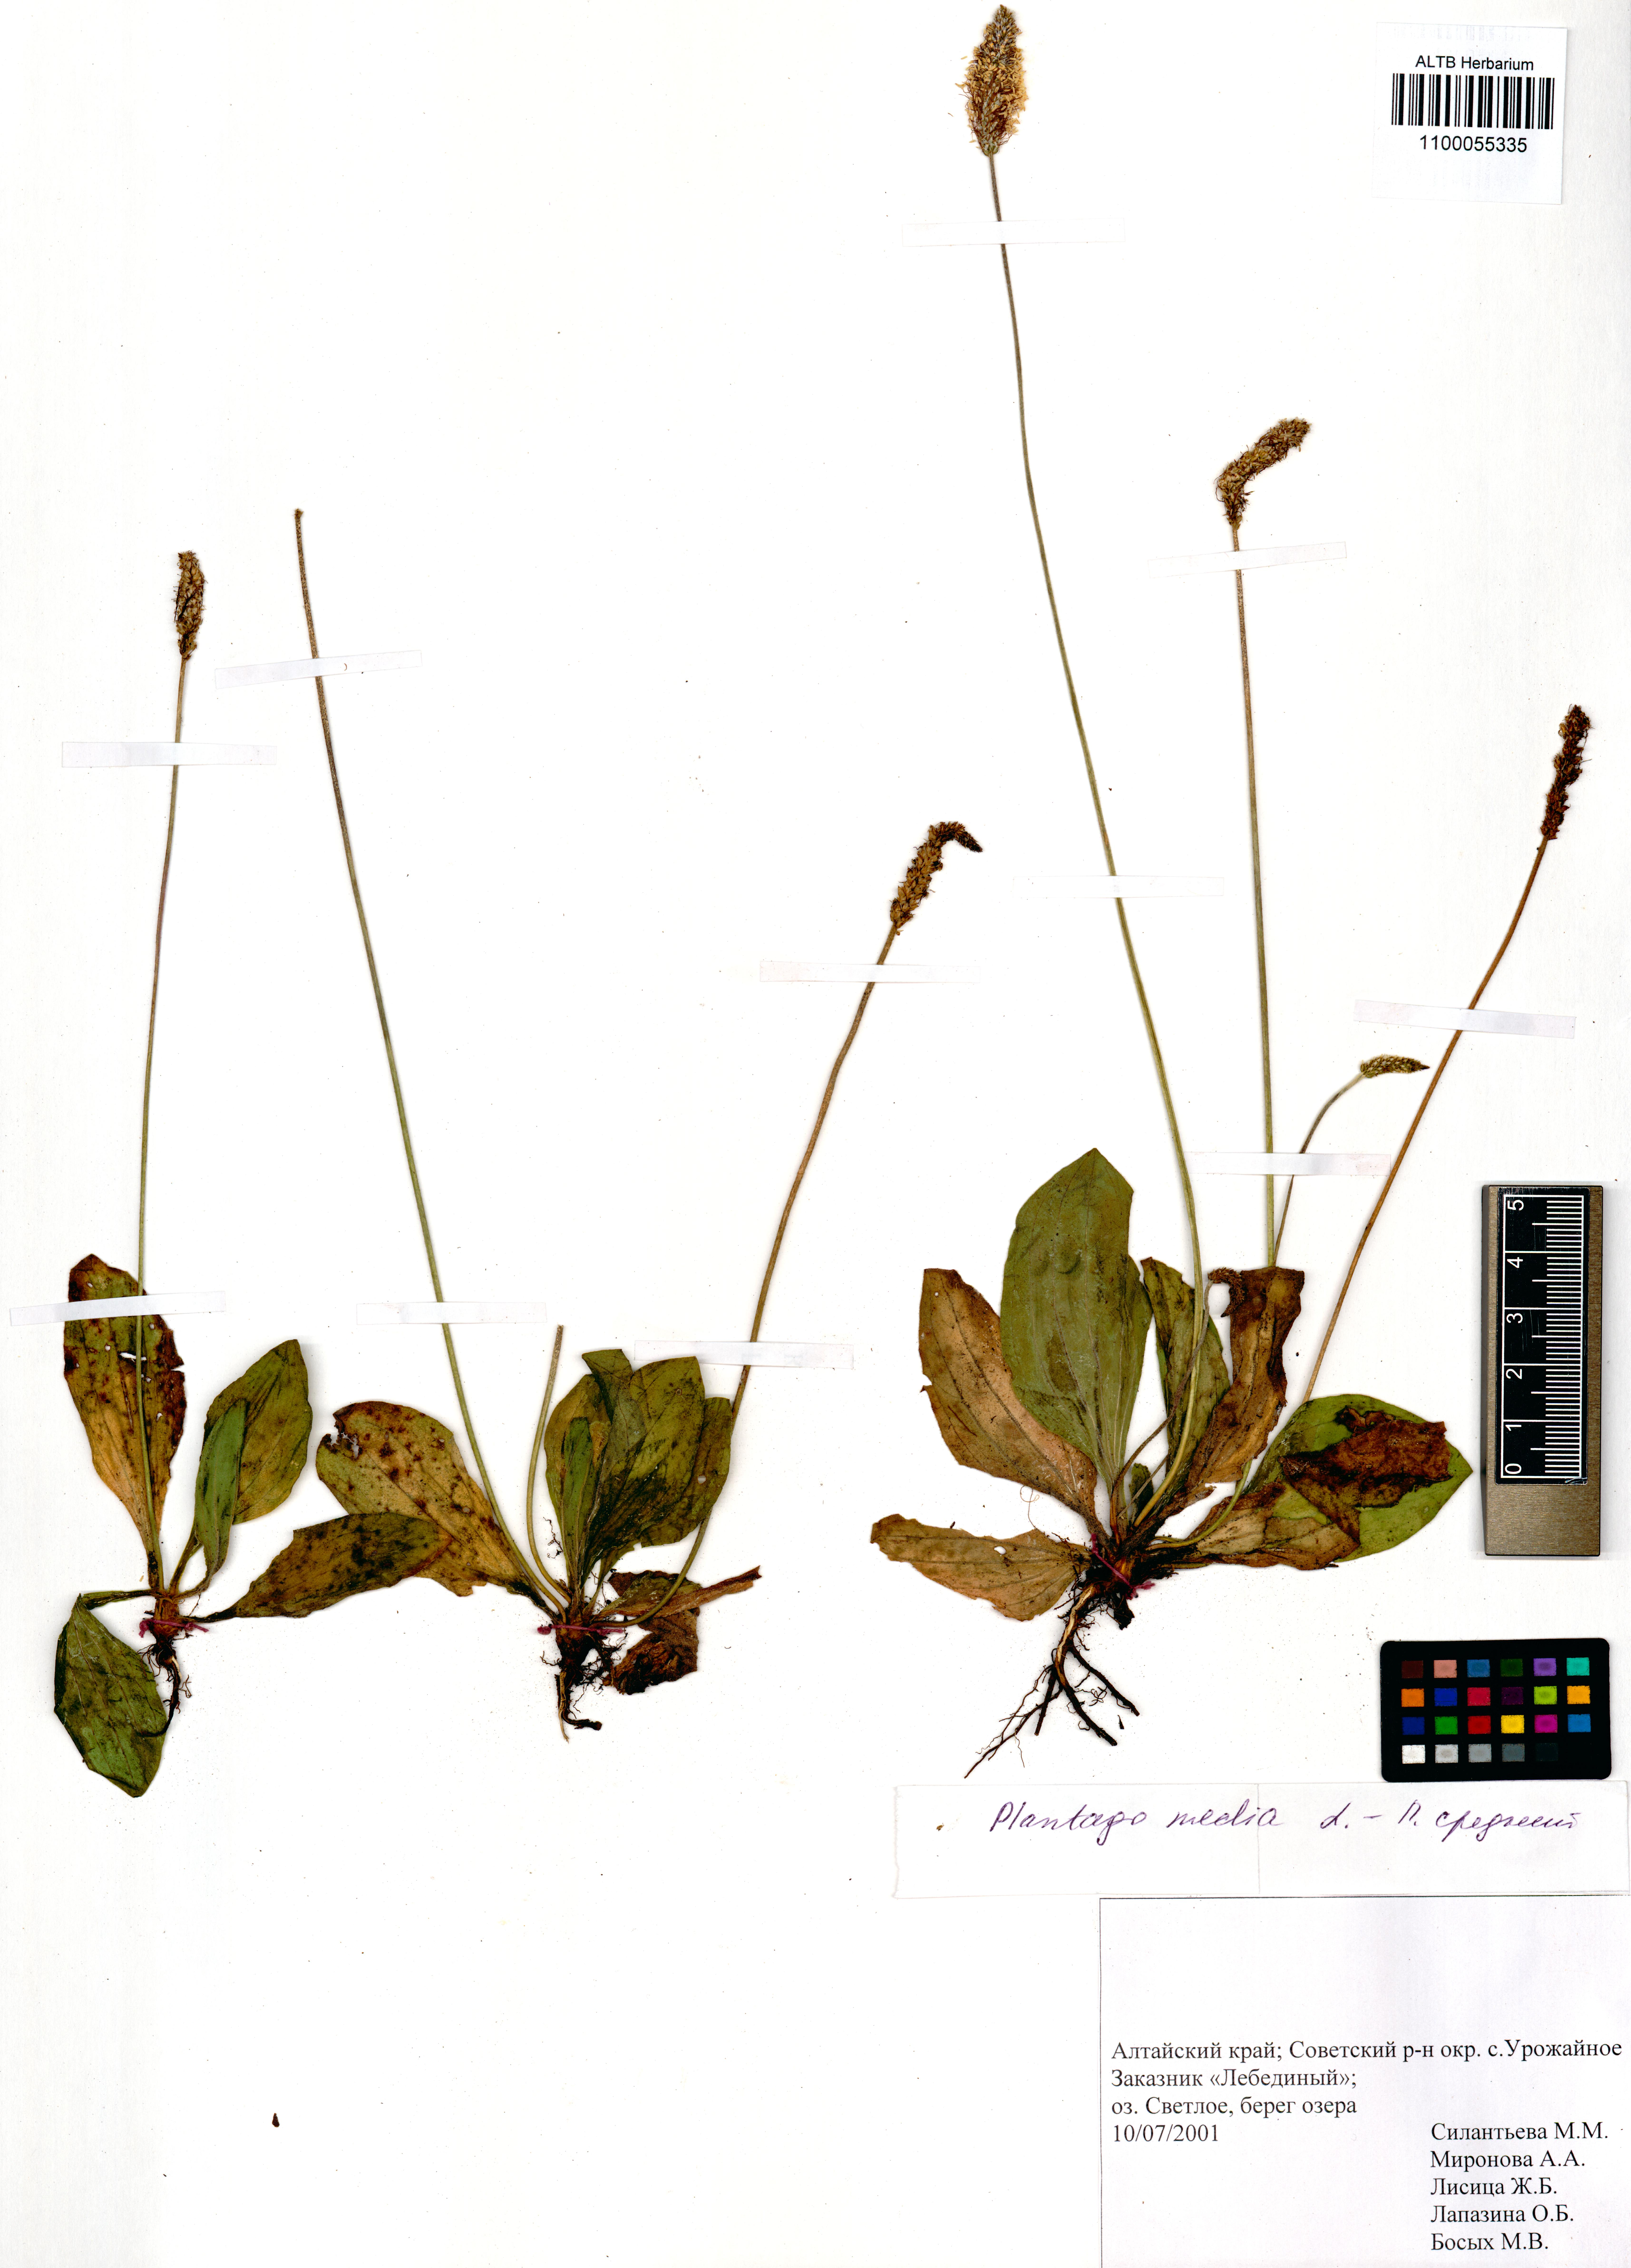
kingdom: Plantae
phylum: Tracheophyta
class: Magnoliopsida
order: Lamiales
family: Plantaginaceae
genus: Plantago
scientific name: Plantago media
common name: Hoary plantain
